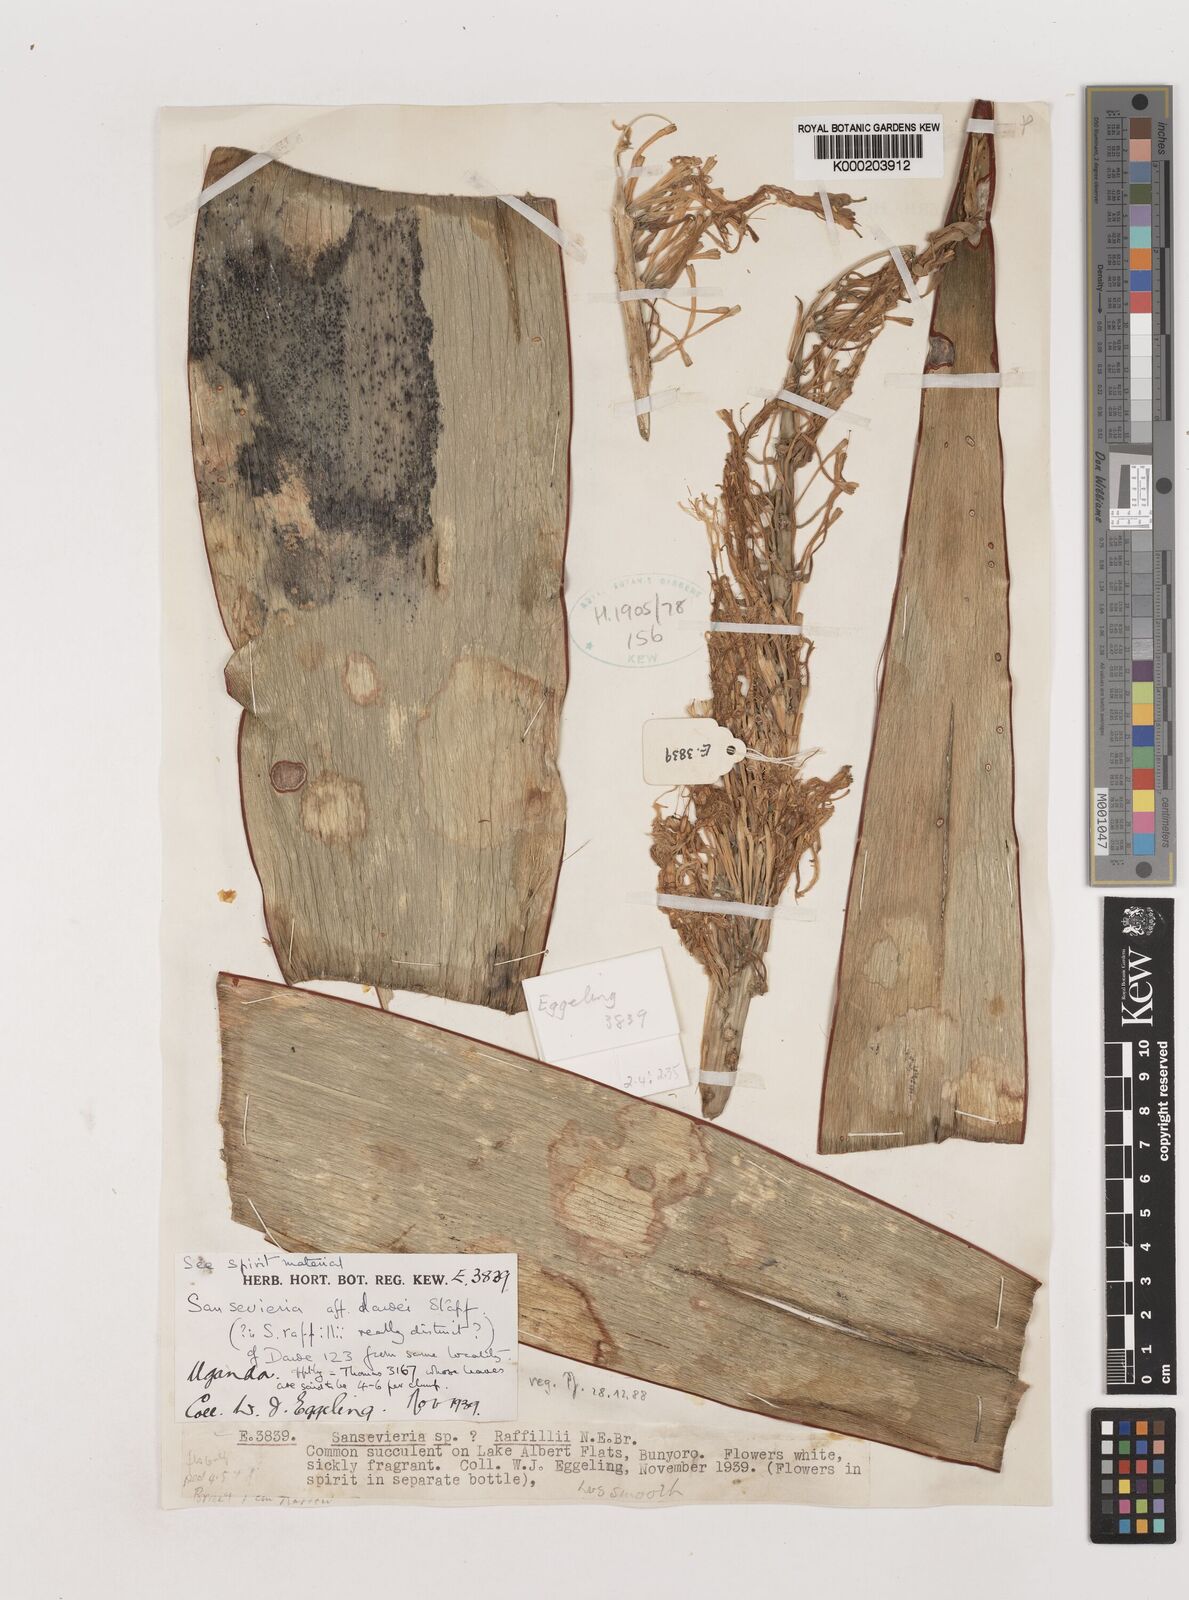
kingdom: Plantae
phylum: Tracheophyta
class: Liliopsida
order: Asparagales
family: Asparagaceae
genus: Dracaena
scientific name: Dracaena dawei
